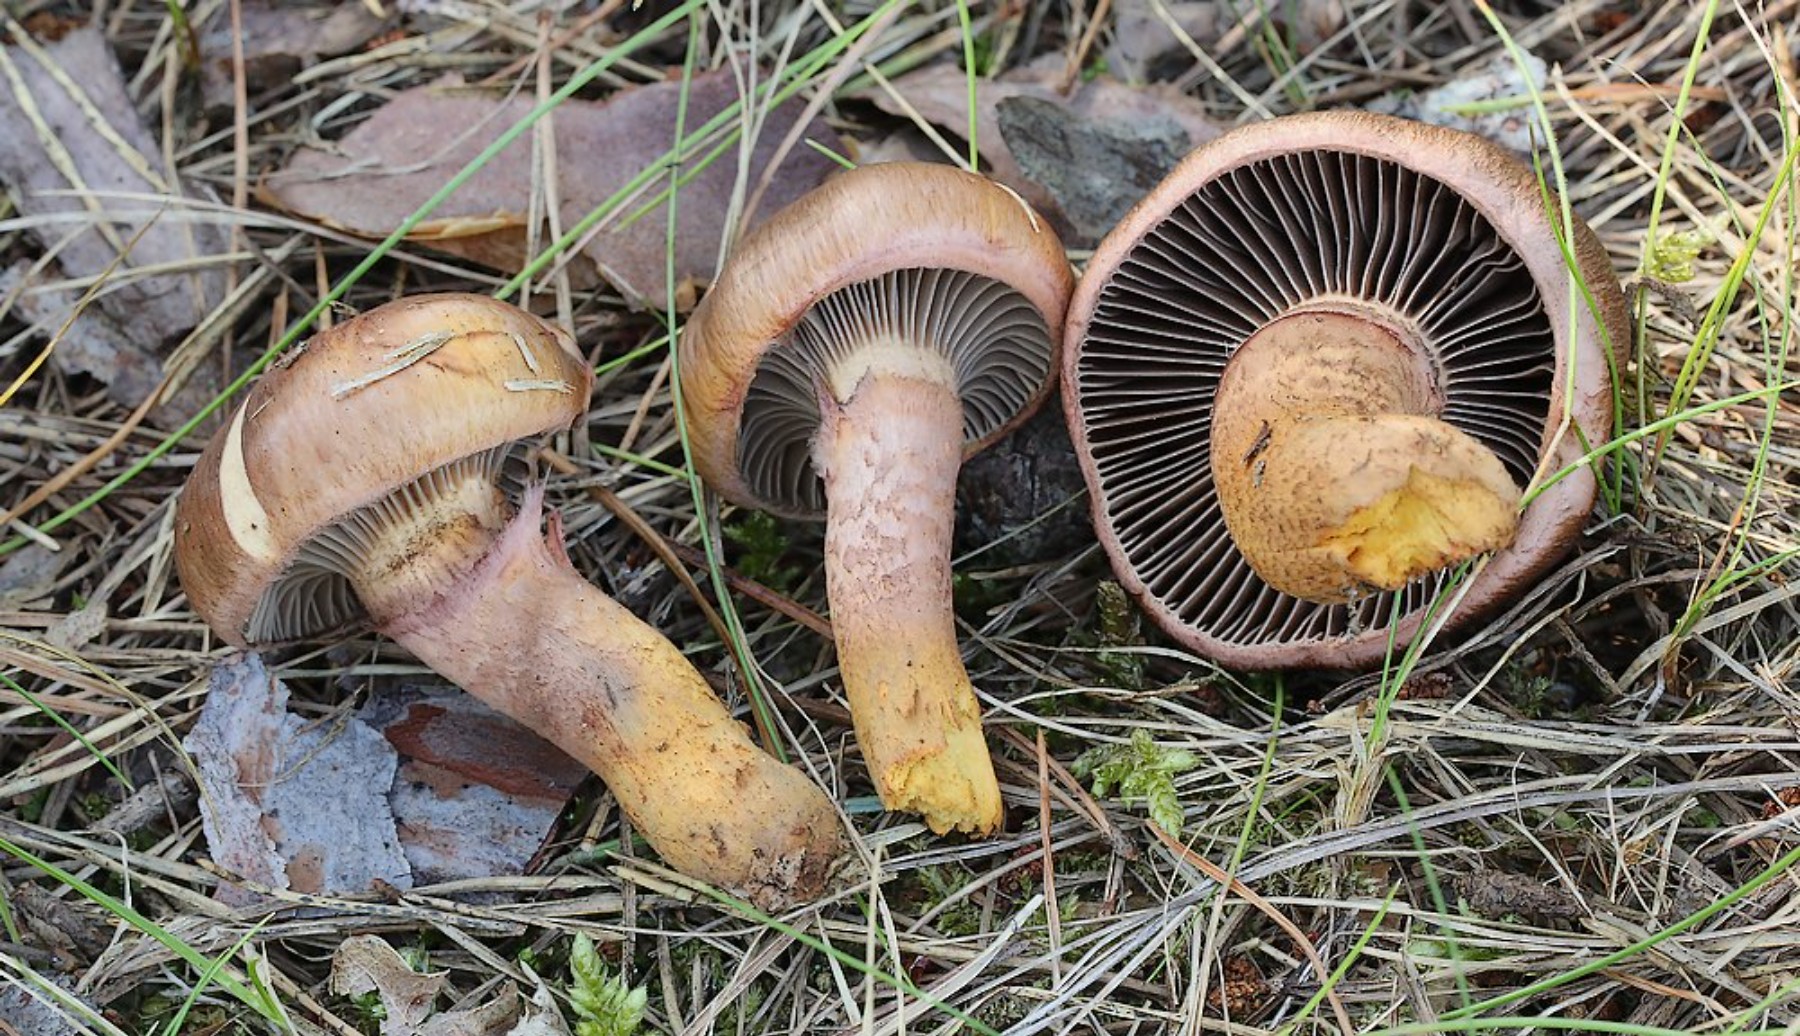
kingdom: Fungi
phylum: Basidiomycota
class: Agaricomycetes
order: Boletales
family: Gomphidiaceae
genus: Chroogomphus
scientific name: Chroogomphus
